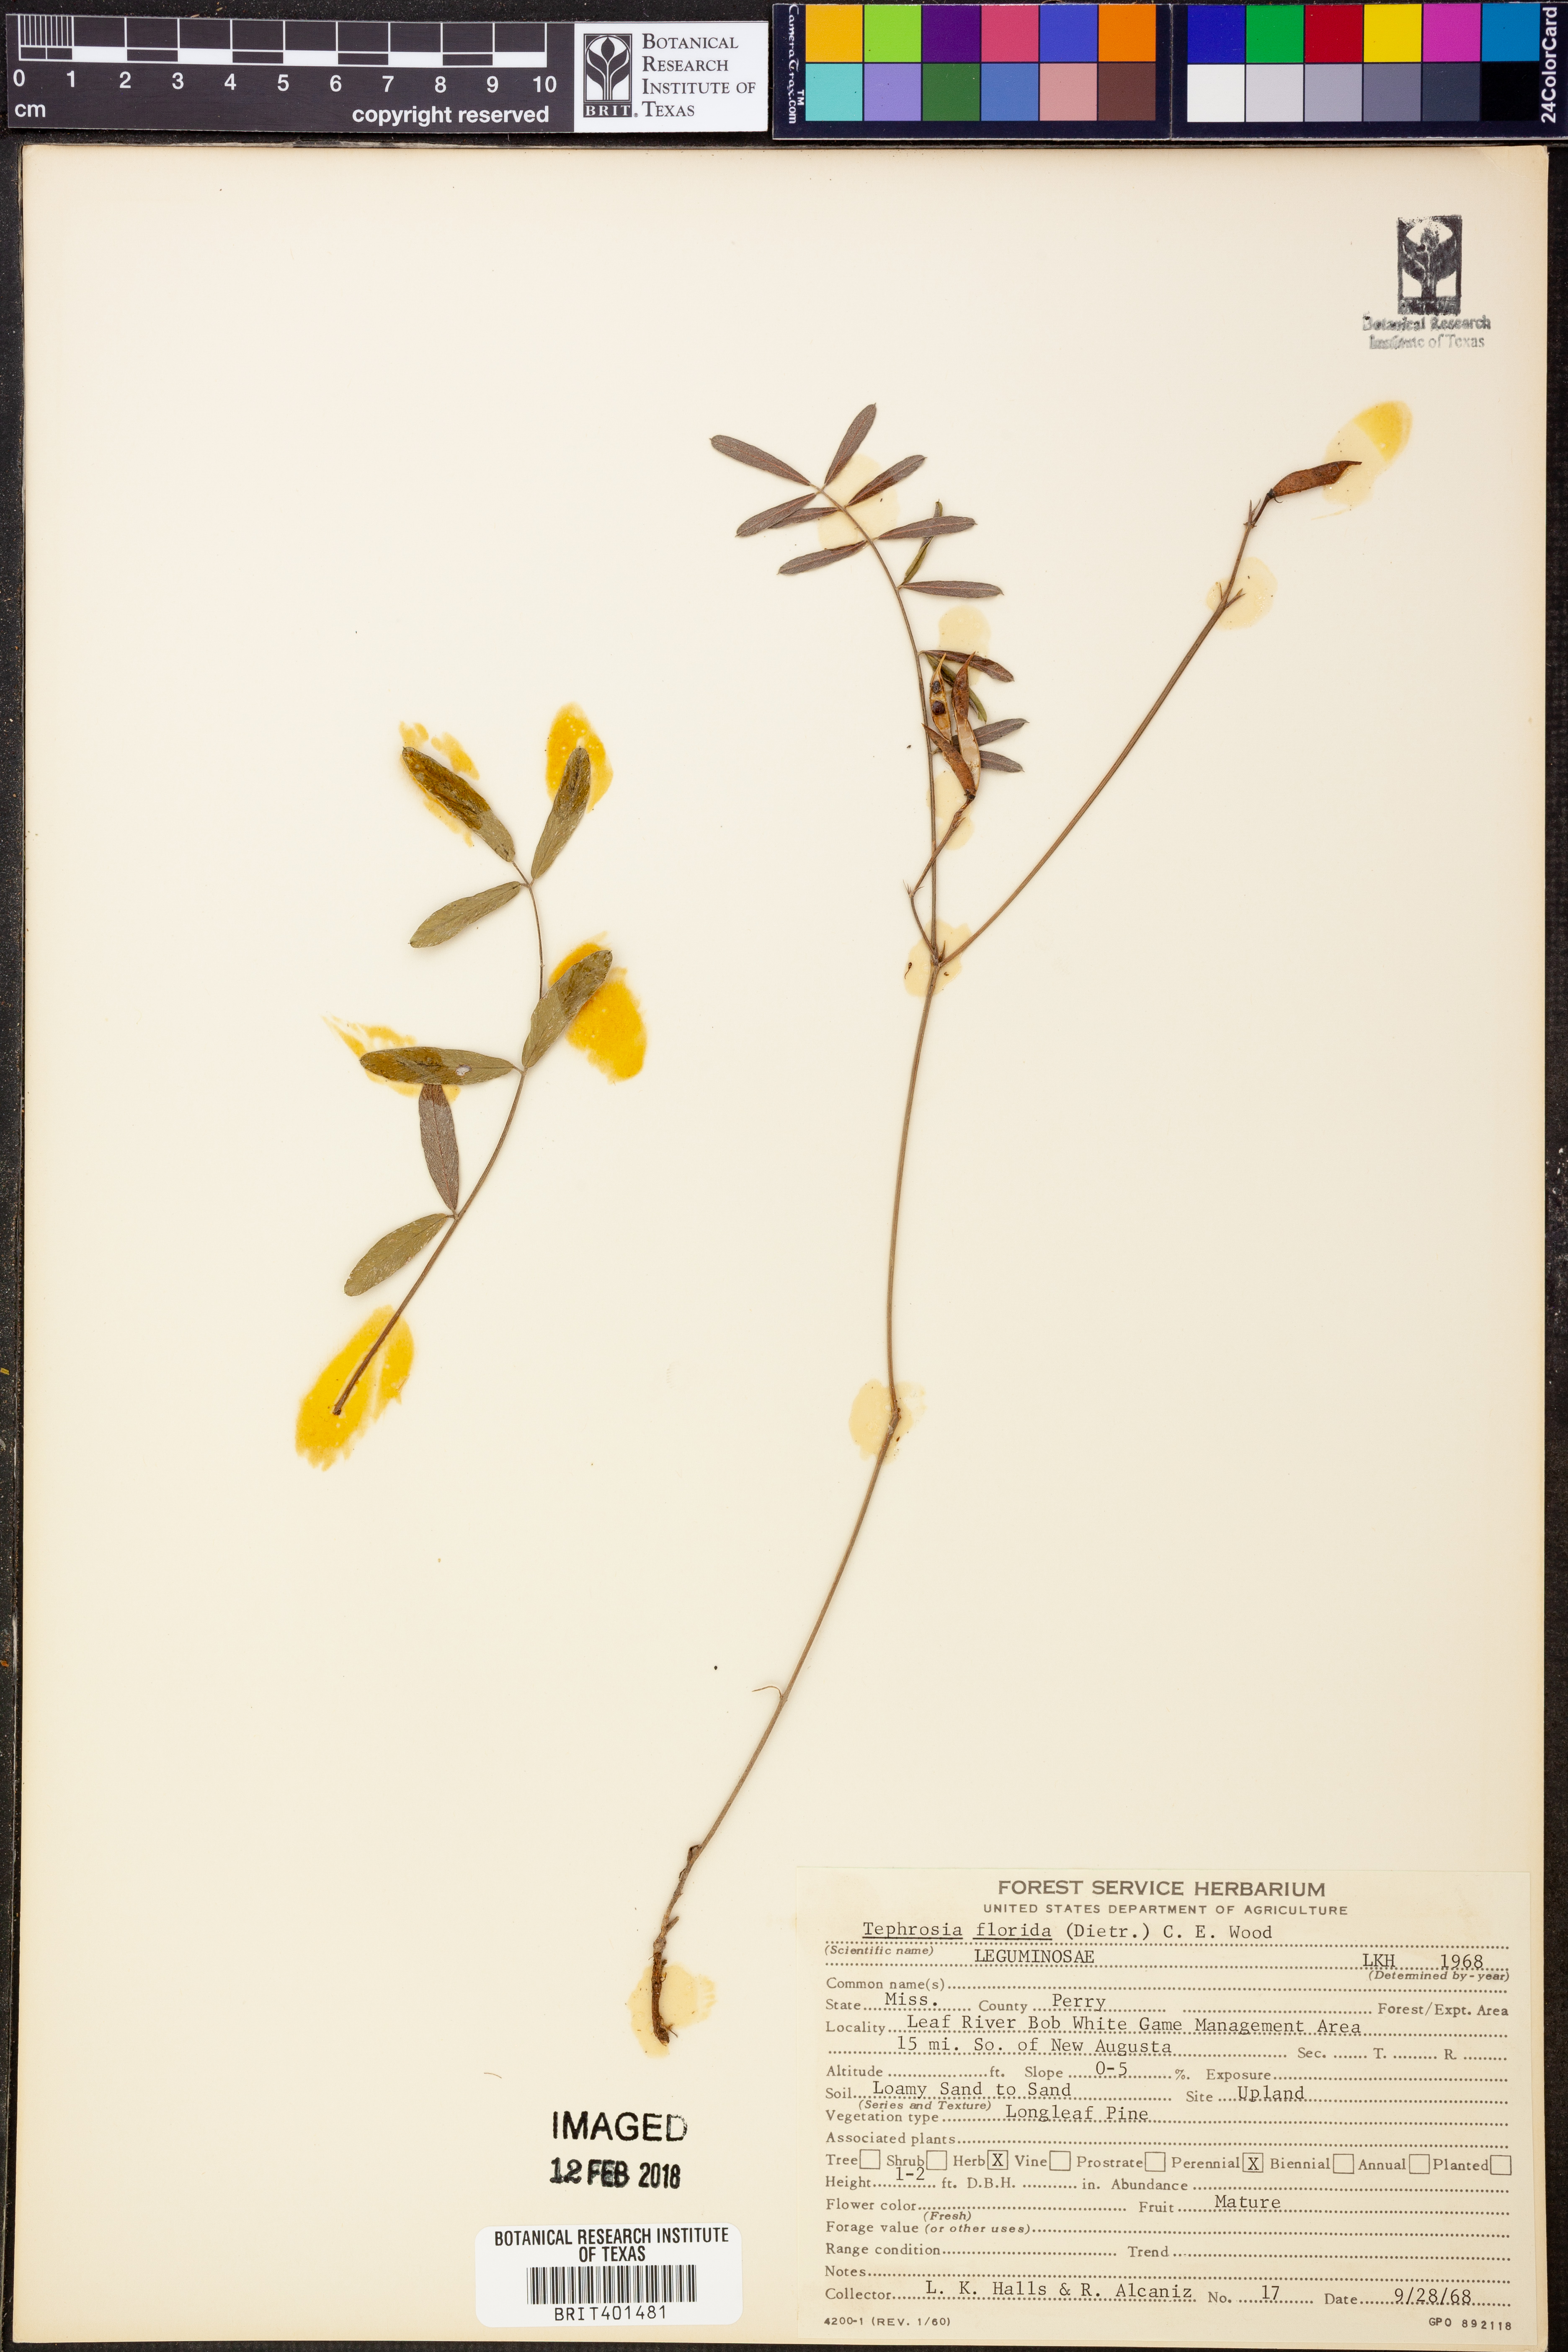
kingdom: Plantae
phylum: Tracheophyta
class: Magnoliopsida
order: Fabales
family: Fabaceae
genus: Tephrosia
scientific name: Tephrosia florida
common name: Florida hoary-pea
